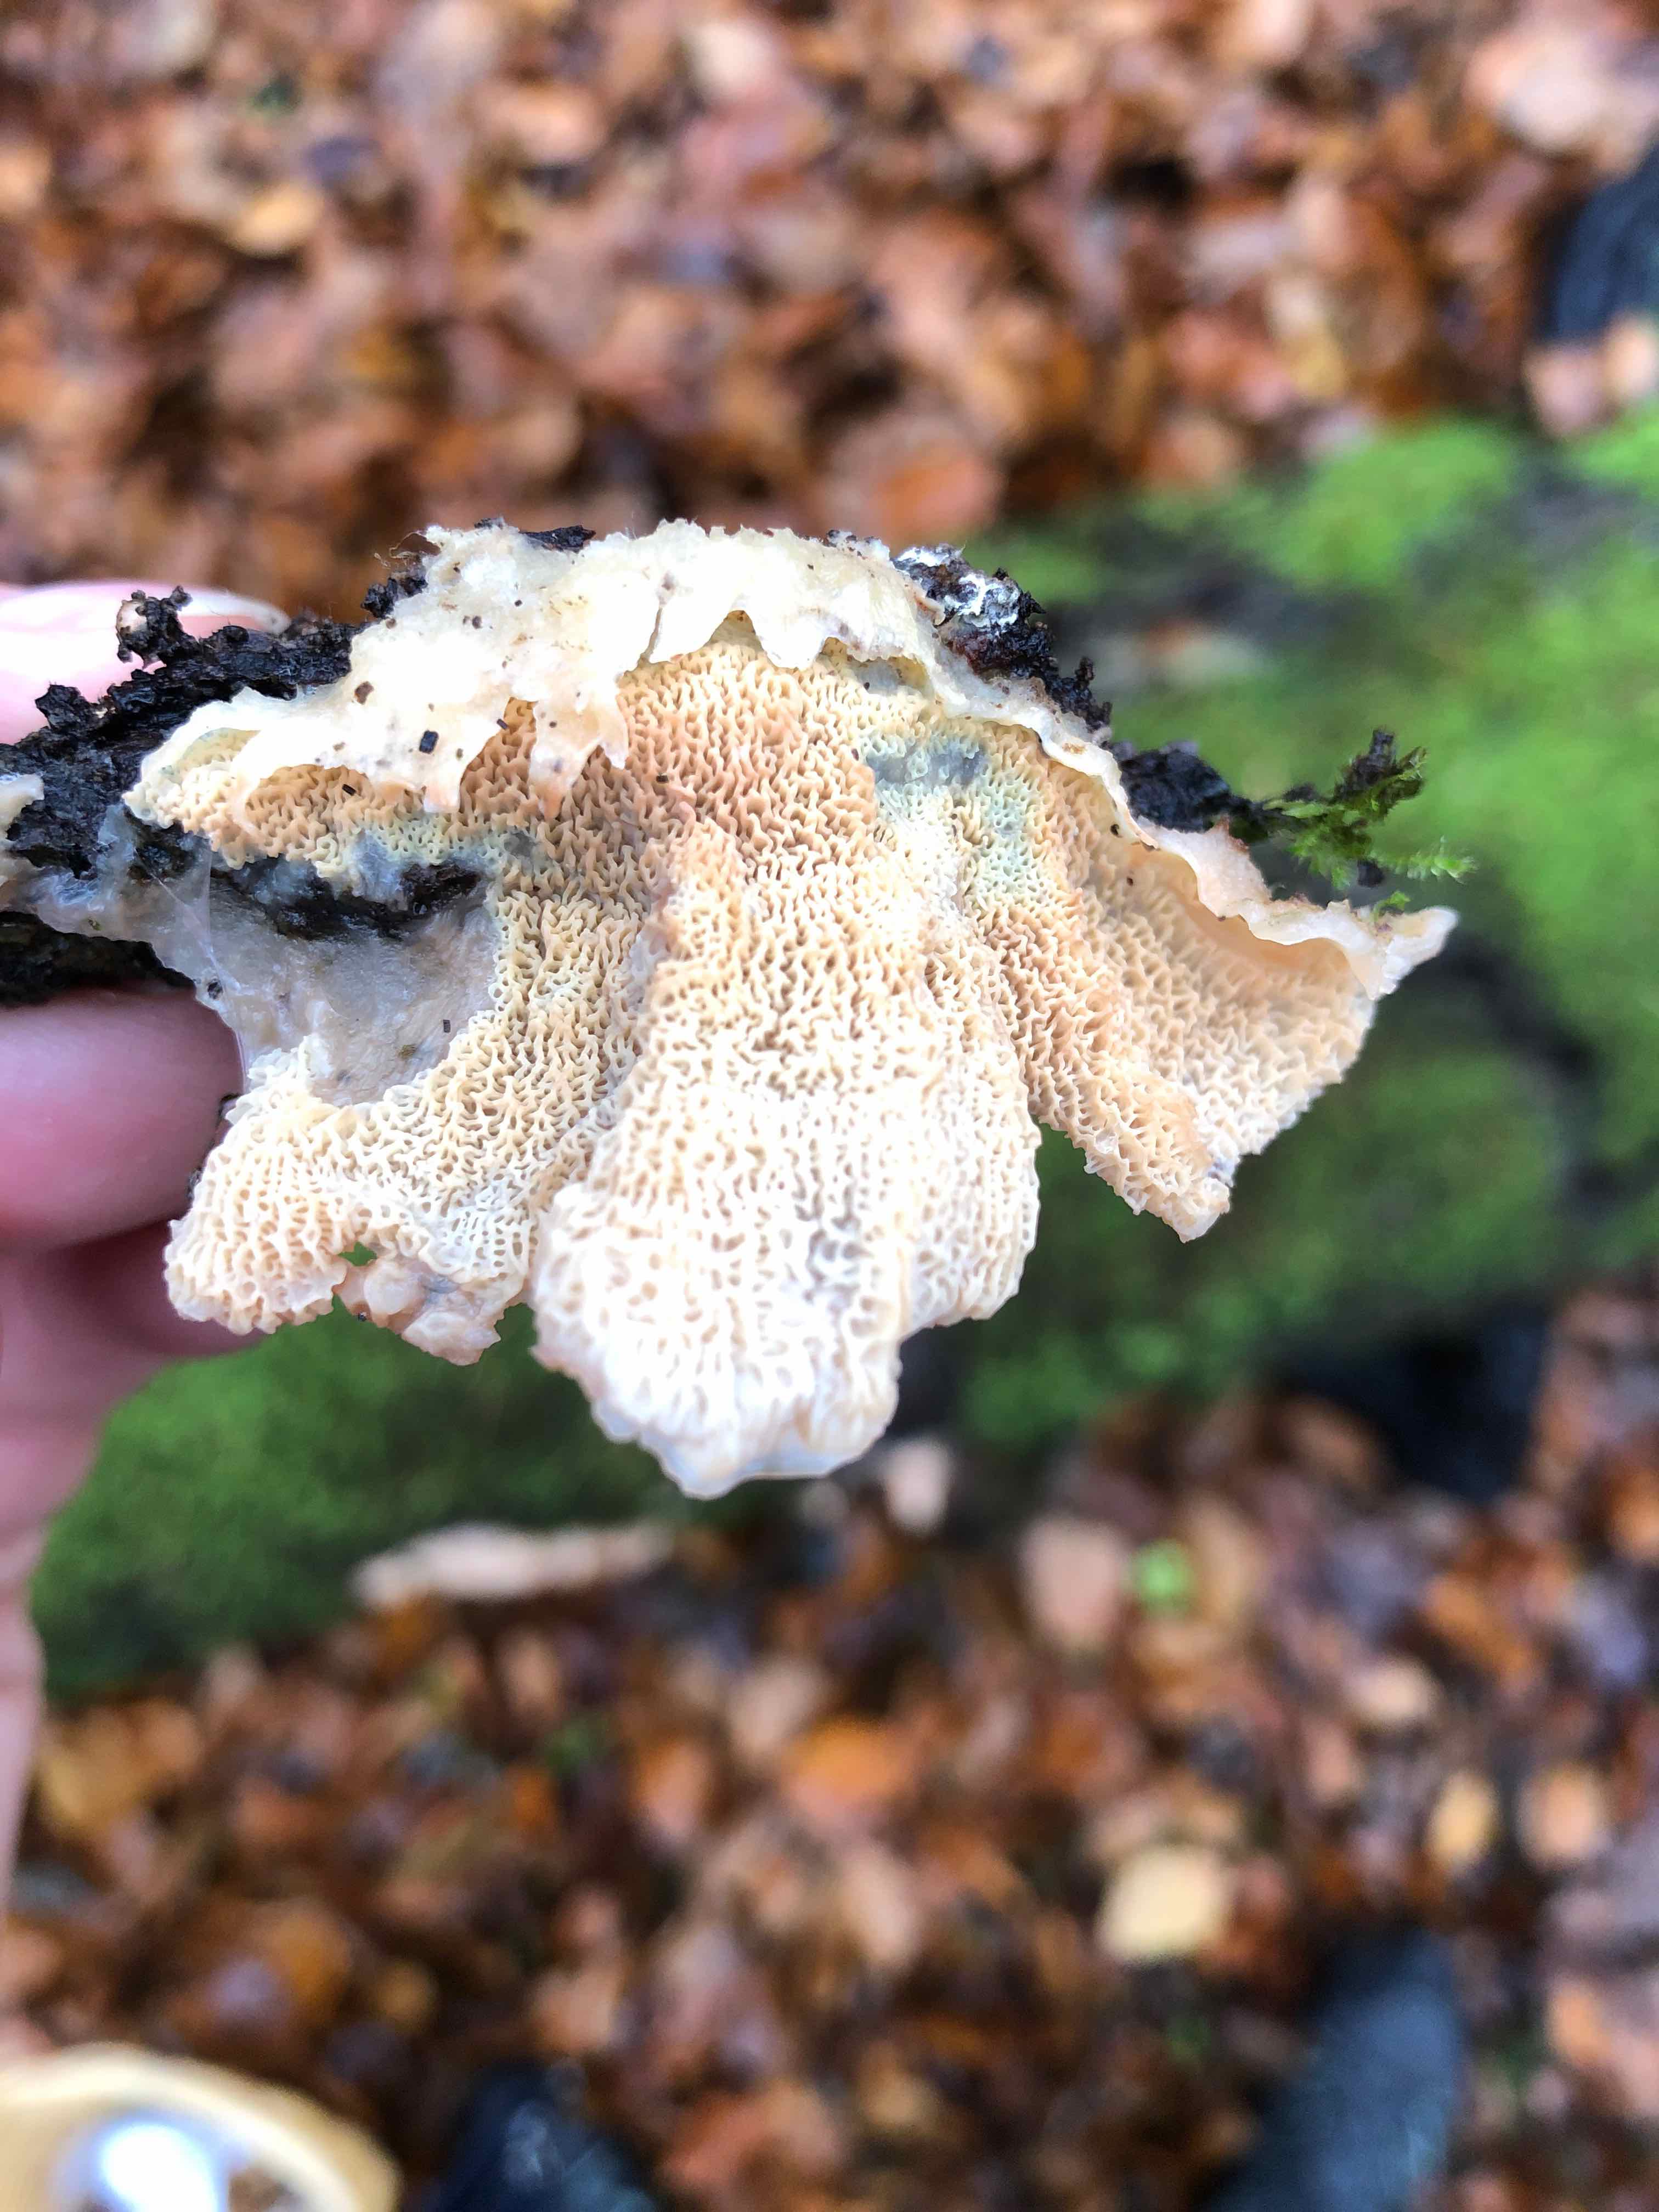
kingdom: Fungi
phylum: Basidiomycota
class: Agaricomycetes
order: Polyporales
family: Meruliaceae
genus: Phlebia
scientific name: Phlebia tremellosa
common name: bævrende åresvamp
